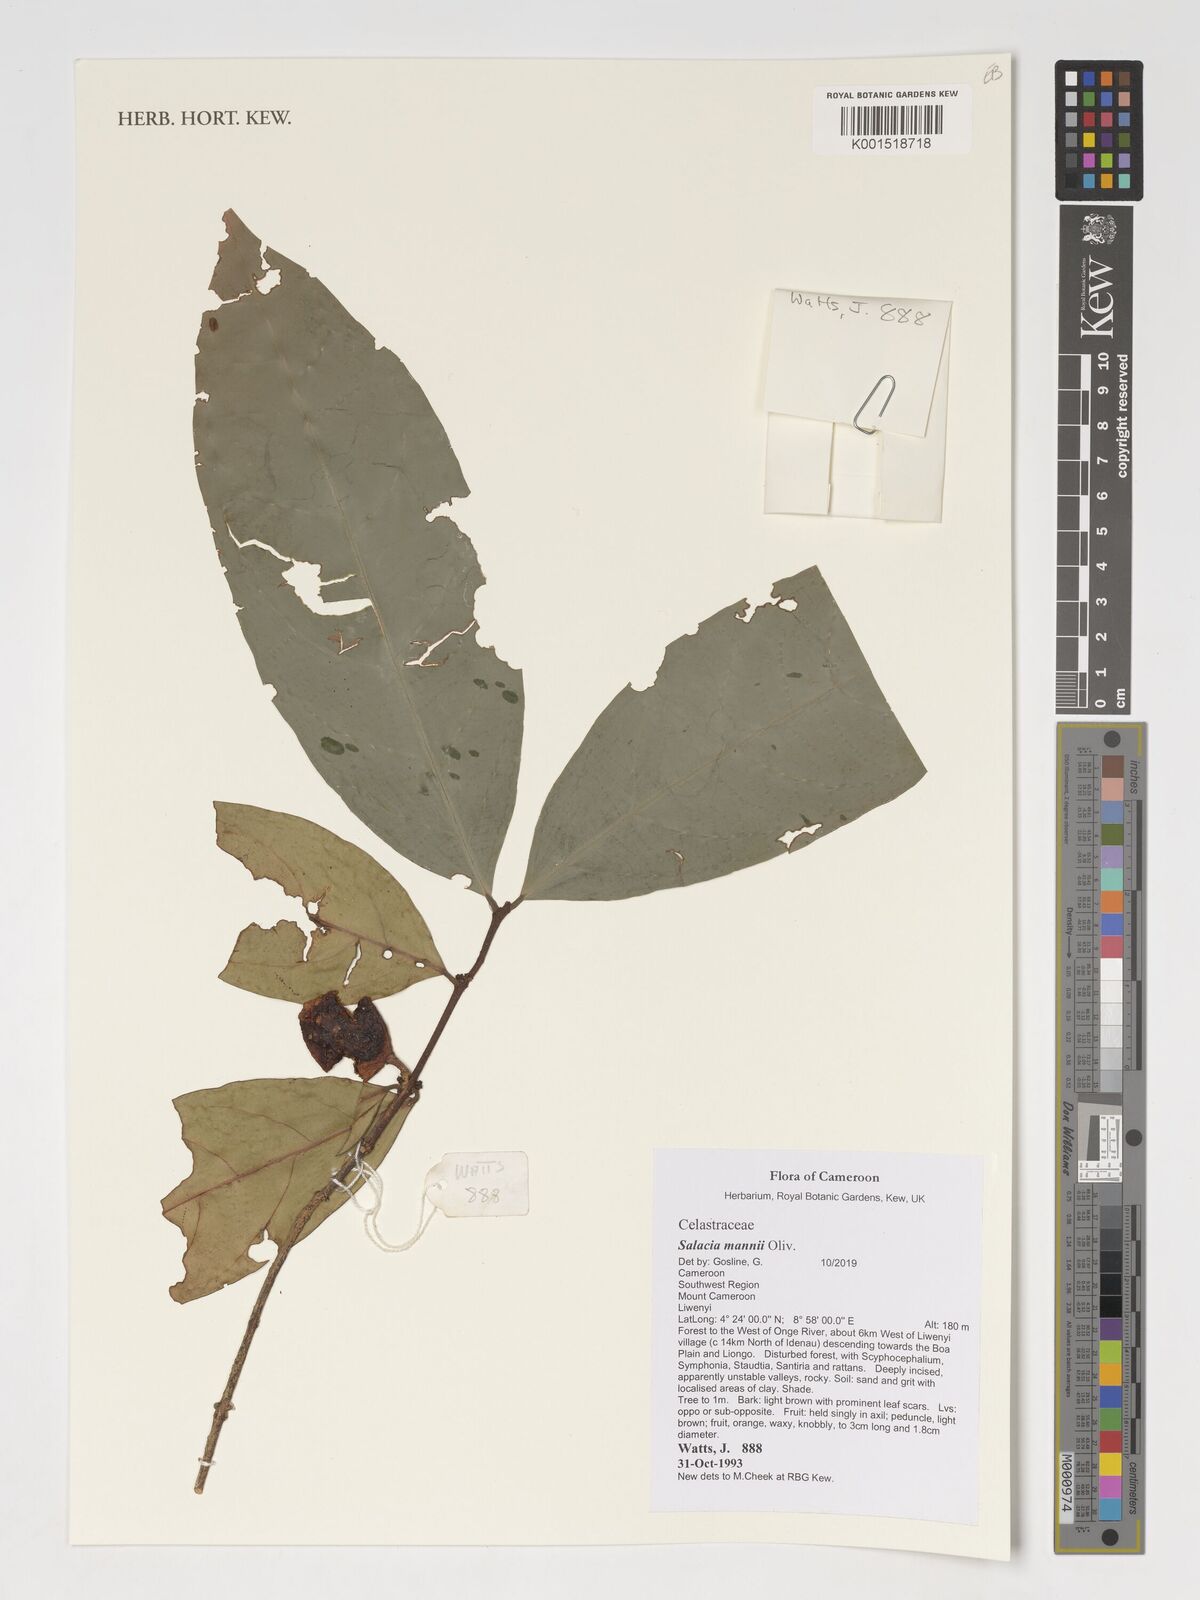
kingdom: Plantae
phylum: Tracheophyta
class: Magnoliopsida
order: Celastrales
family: Celastraceae
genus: Salacia
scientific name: Salacia mannii
